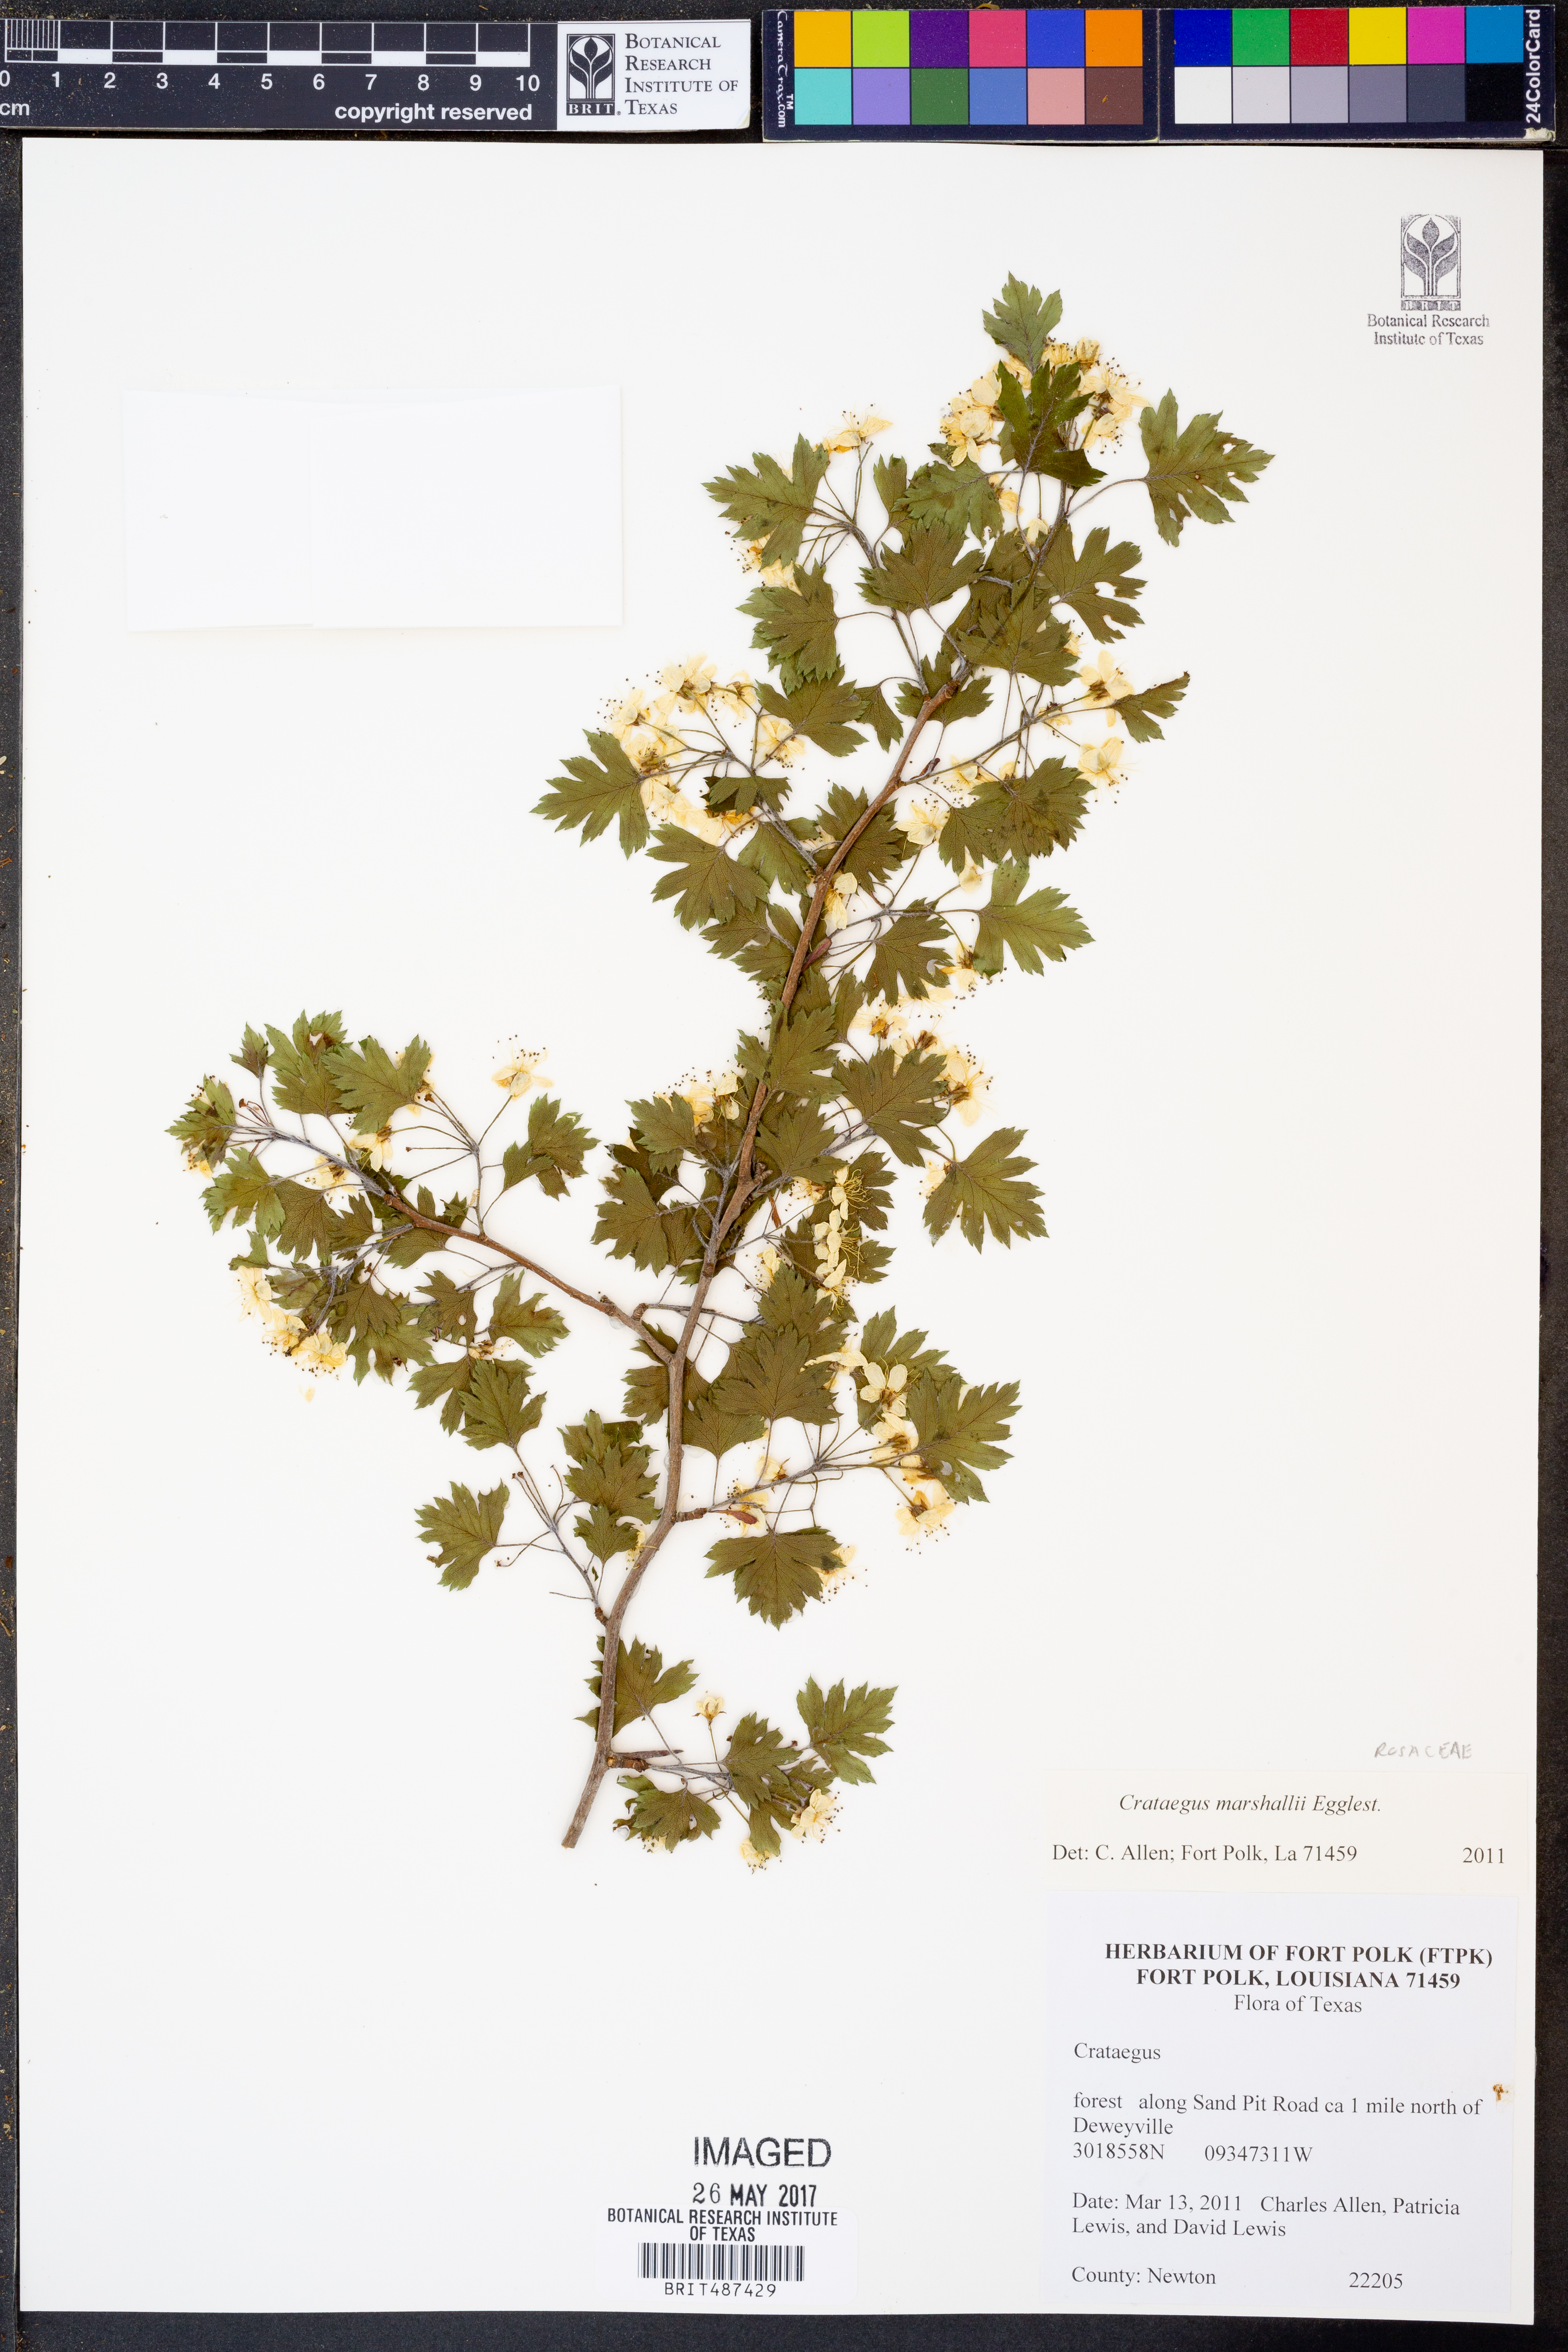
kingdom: Plantae
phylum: Tracheophyta
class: Magnoliopsida
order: Rosales
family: Rosaceae
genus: Crataegus
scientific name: Crataegus marshallii
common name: Parsley-hawthorn
